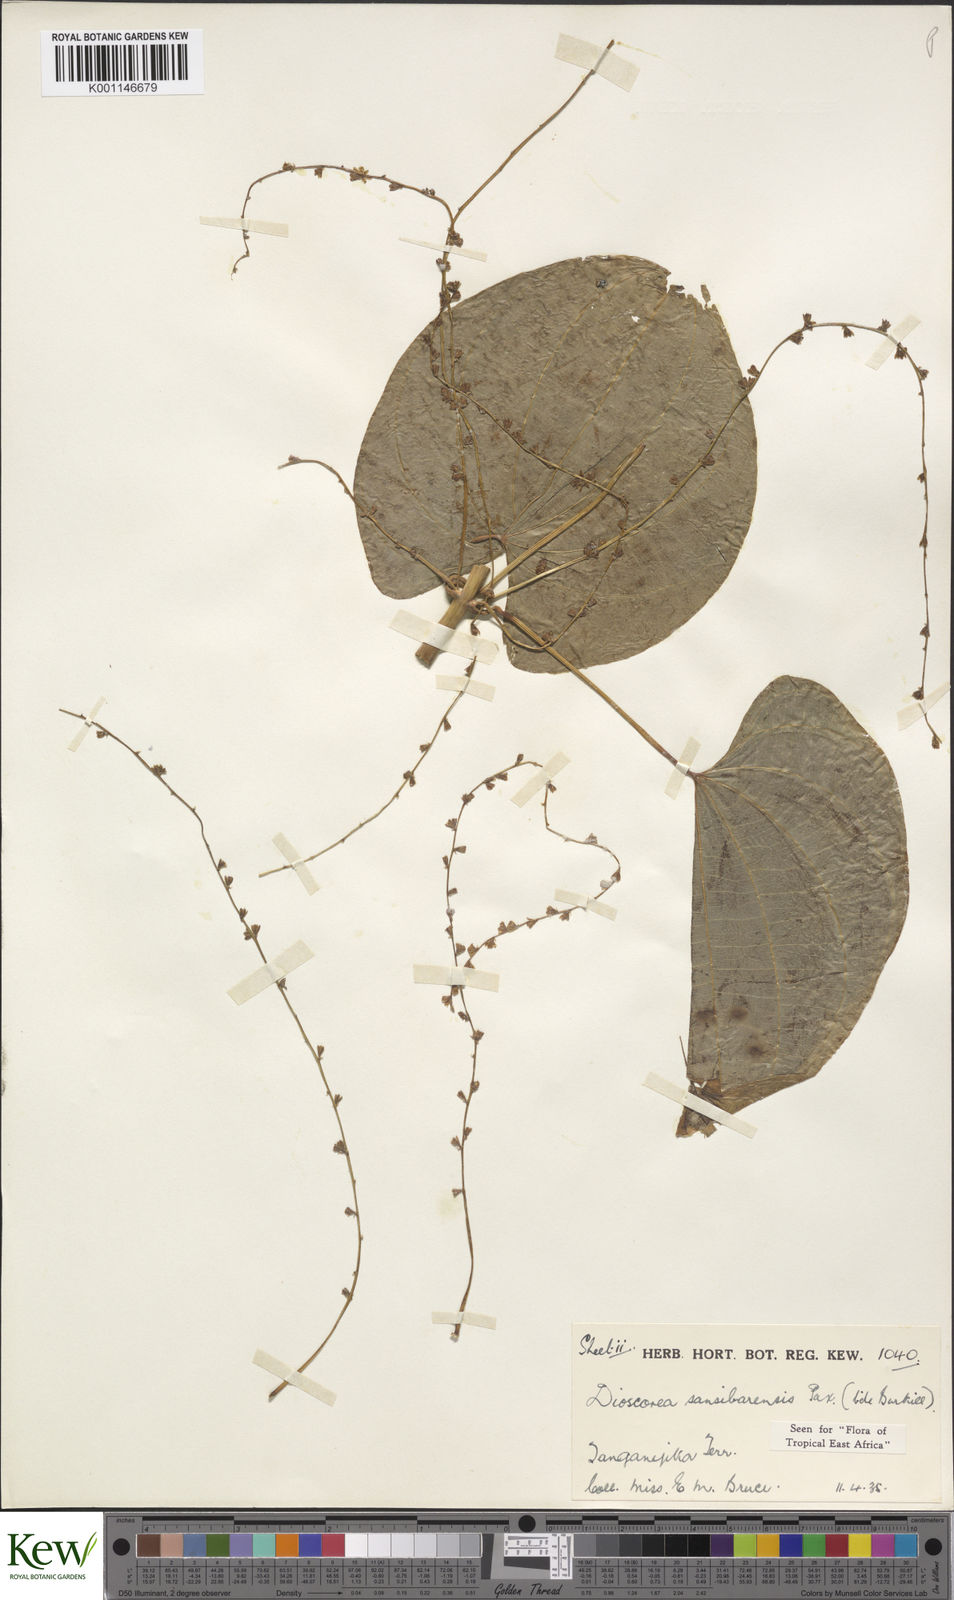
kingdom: Plantae
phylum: Tracheophyta
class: Liliopsida
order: Dioscoreales
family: Dioscoreaceae
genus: Dioscorea
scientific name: Dioscorea sansibarensis
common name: Zanzibar yam
